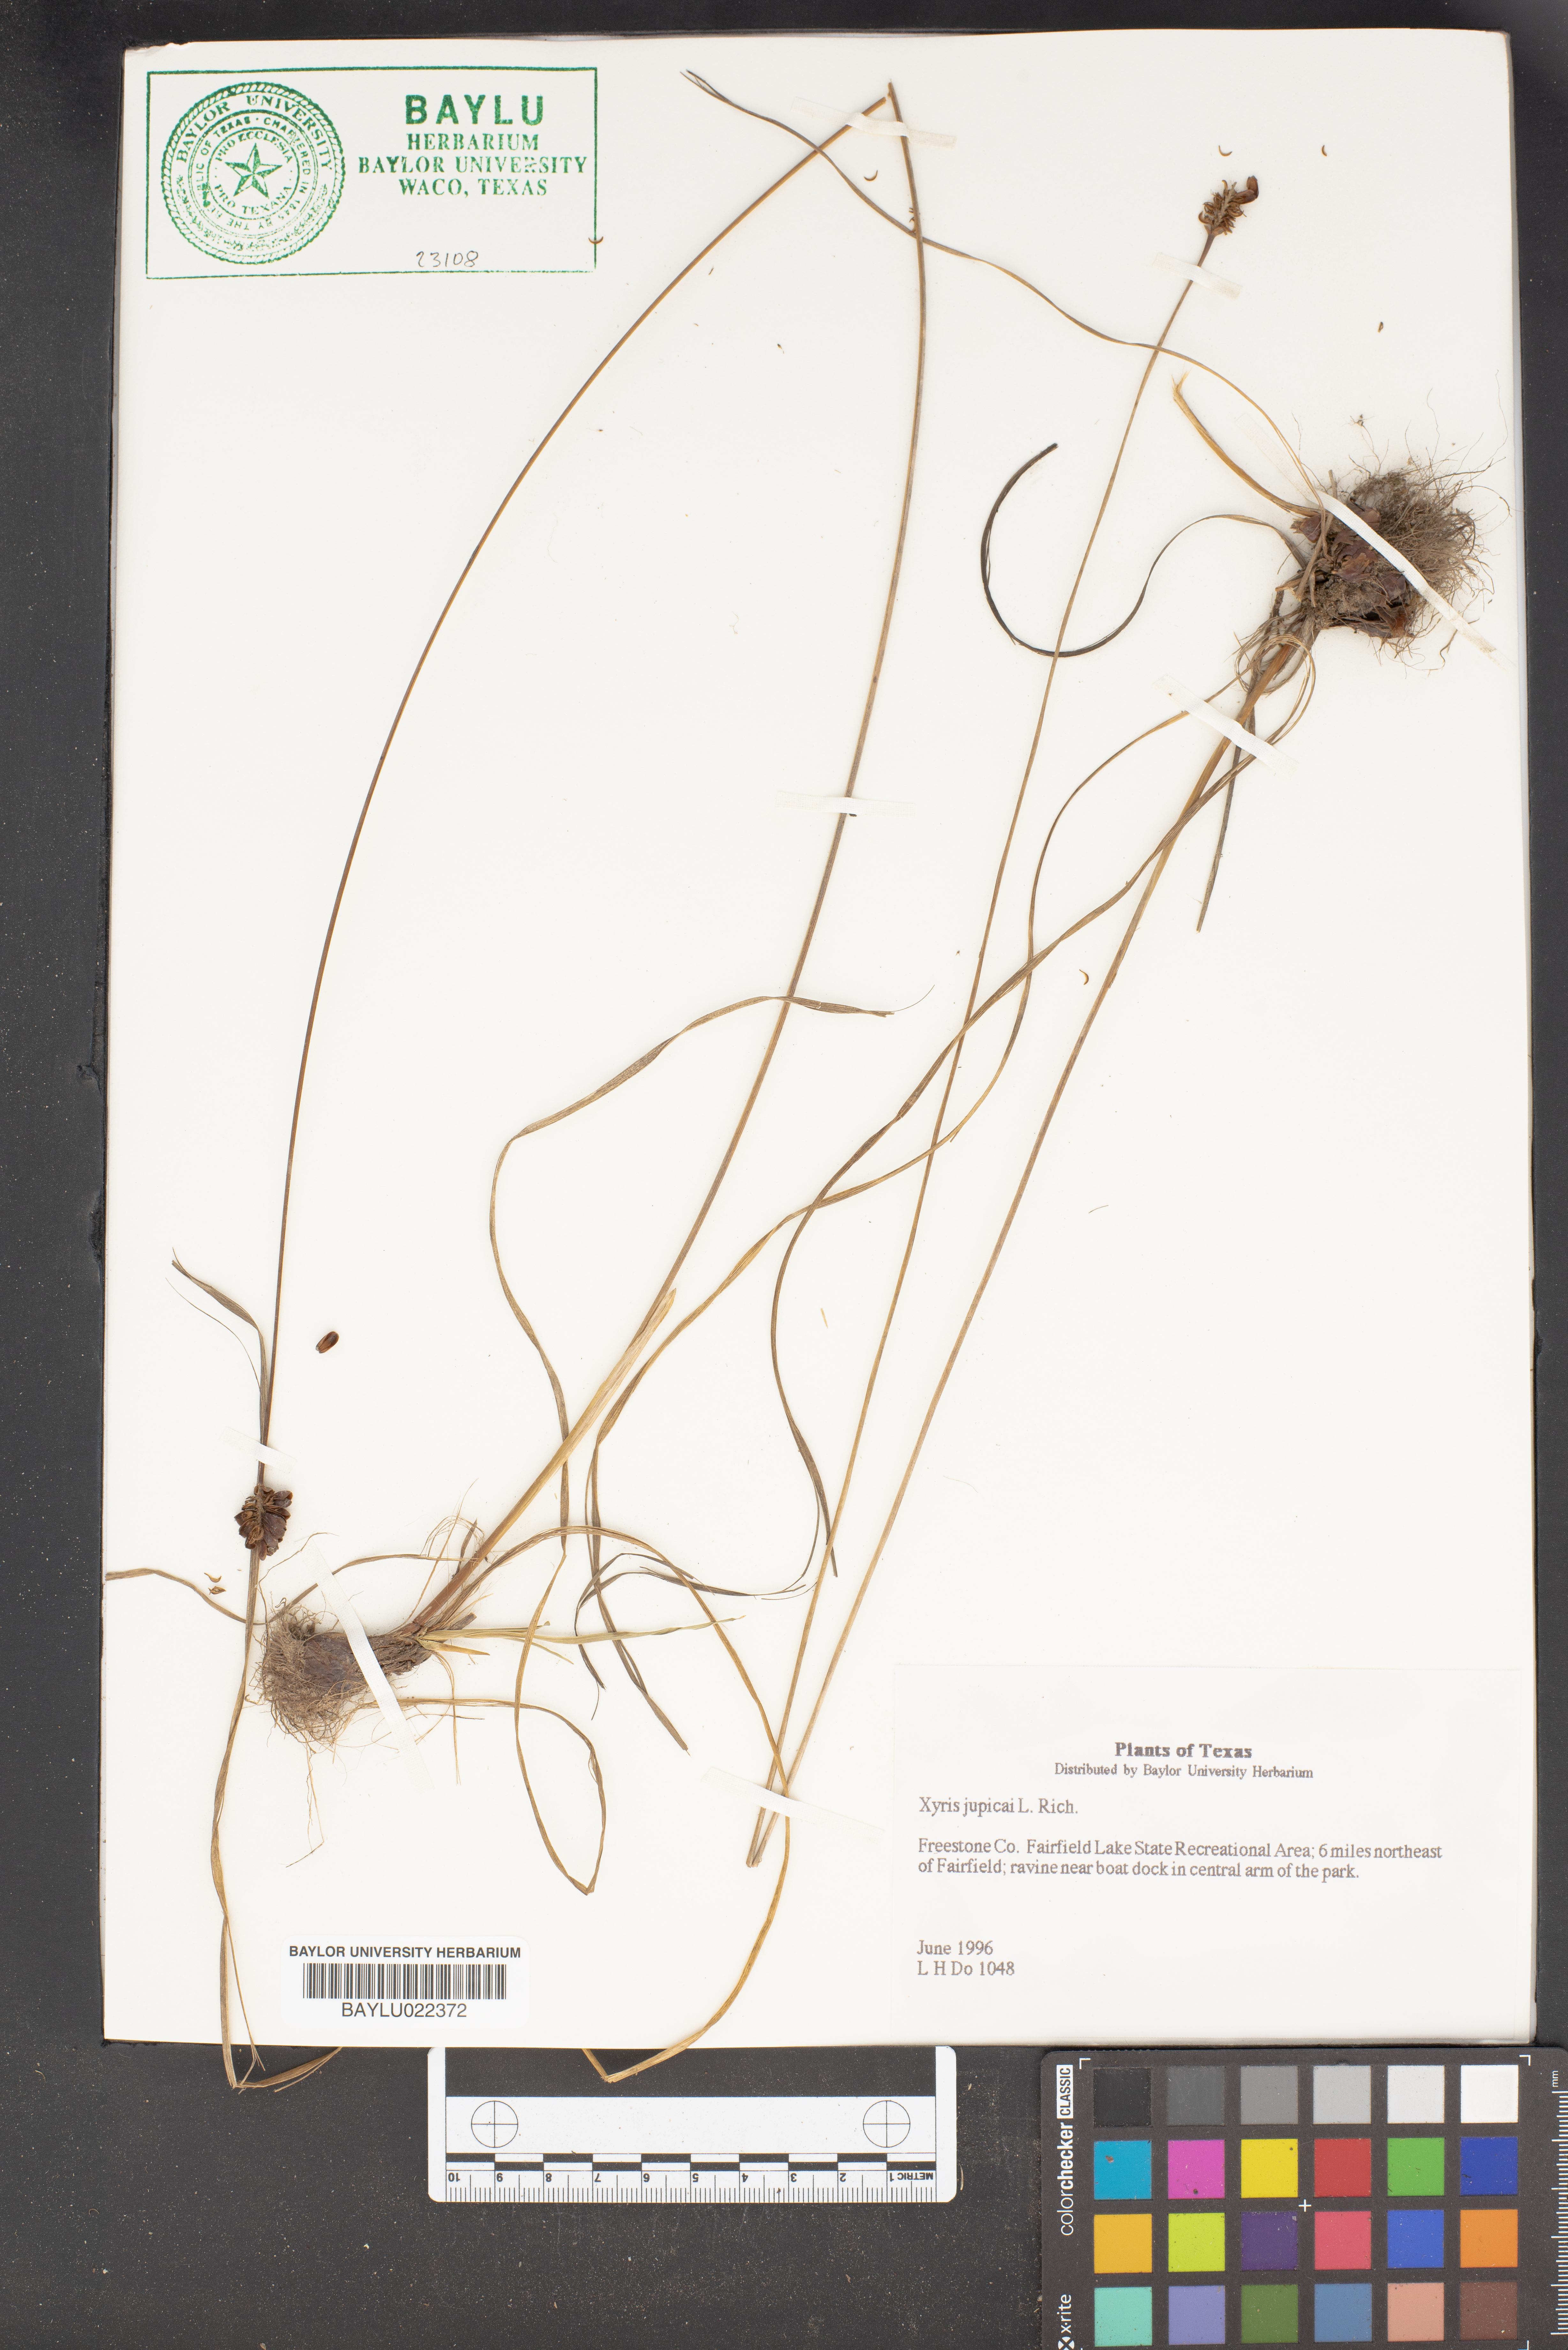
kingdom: Plantae
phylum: Tracheophyta
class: Liliopsida
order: Poales
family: Xyridaceae
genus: Xyris
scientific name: Xyris jupicai
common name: Richard's yelloweyed grass
